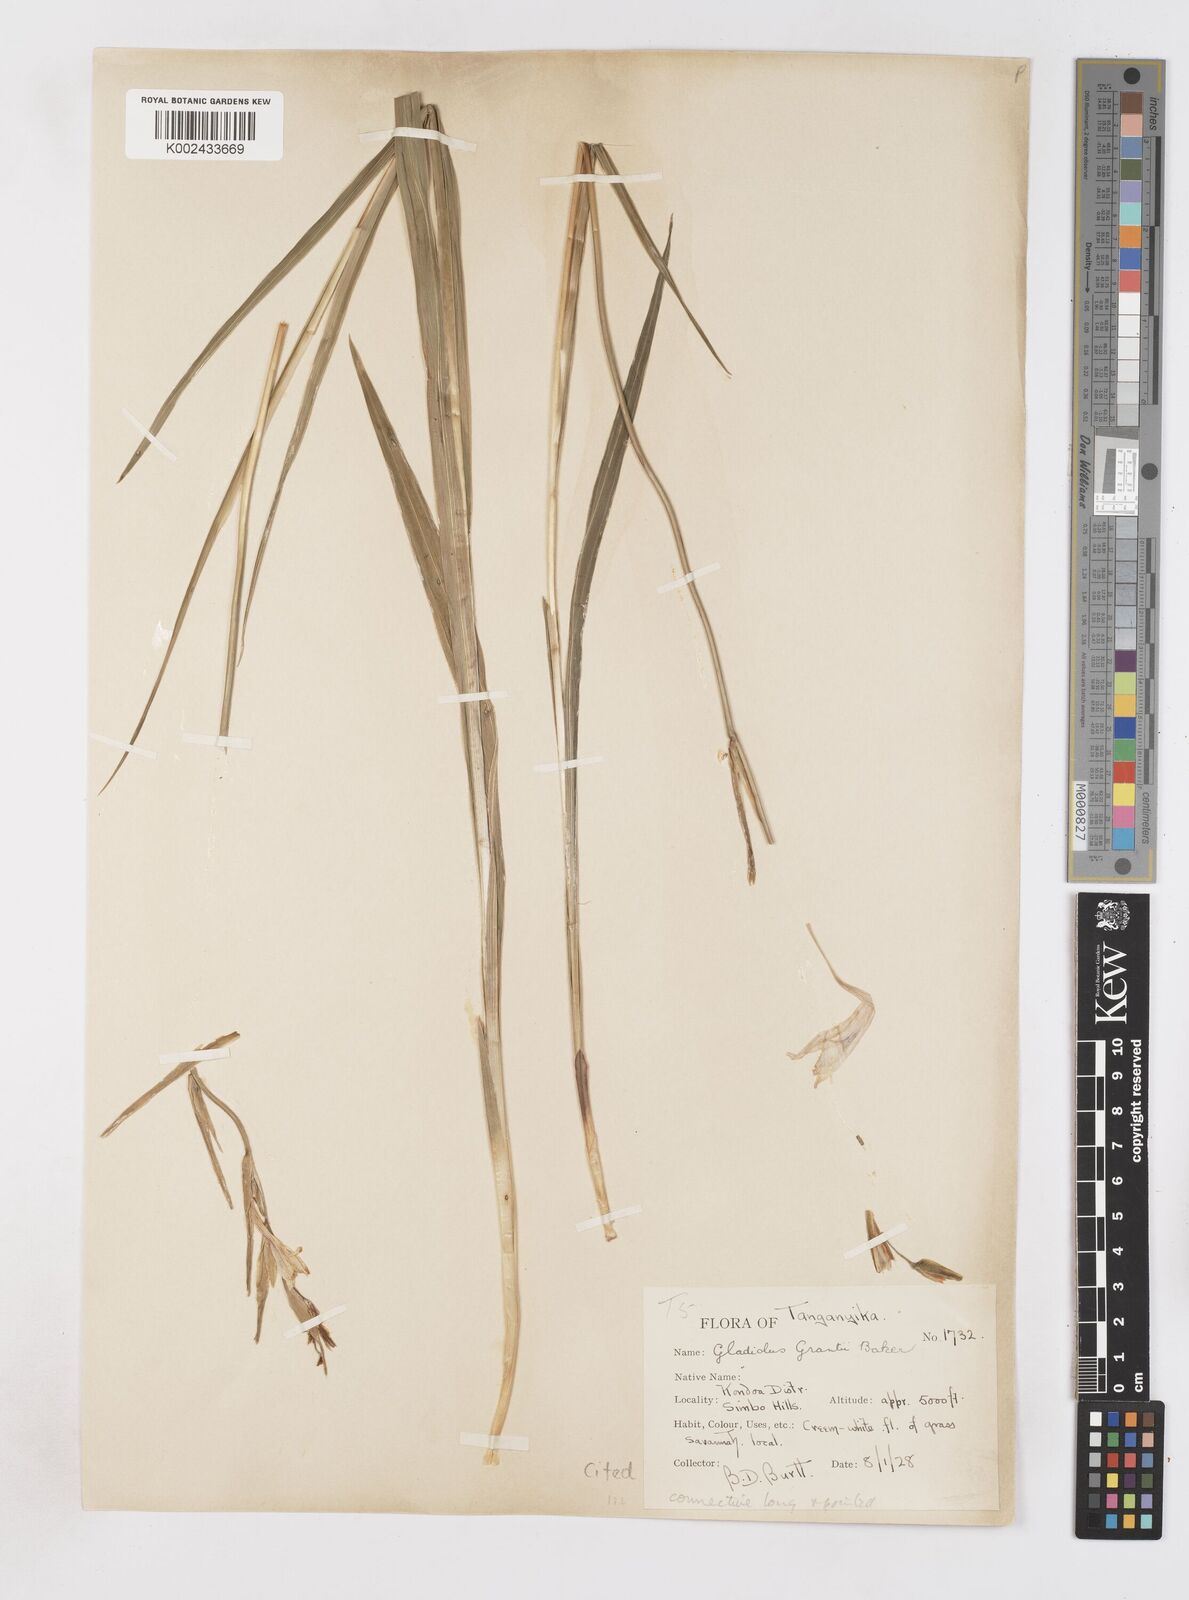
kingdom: Plantae
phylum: Tracheophyta
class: Liliopsida
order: Asparagales
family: Iridaceae
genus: Gladiolus
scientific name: Gladiolus grantii
